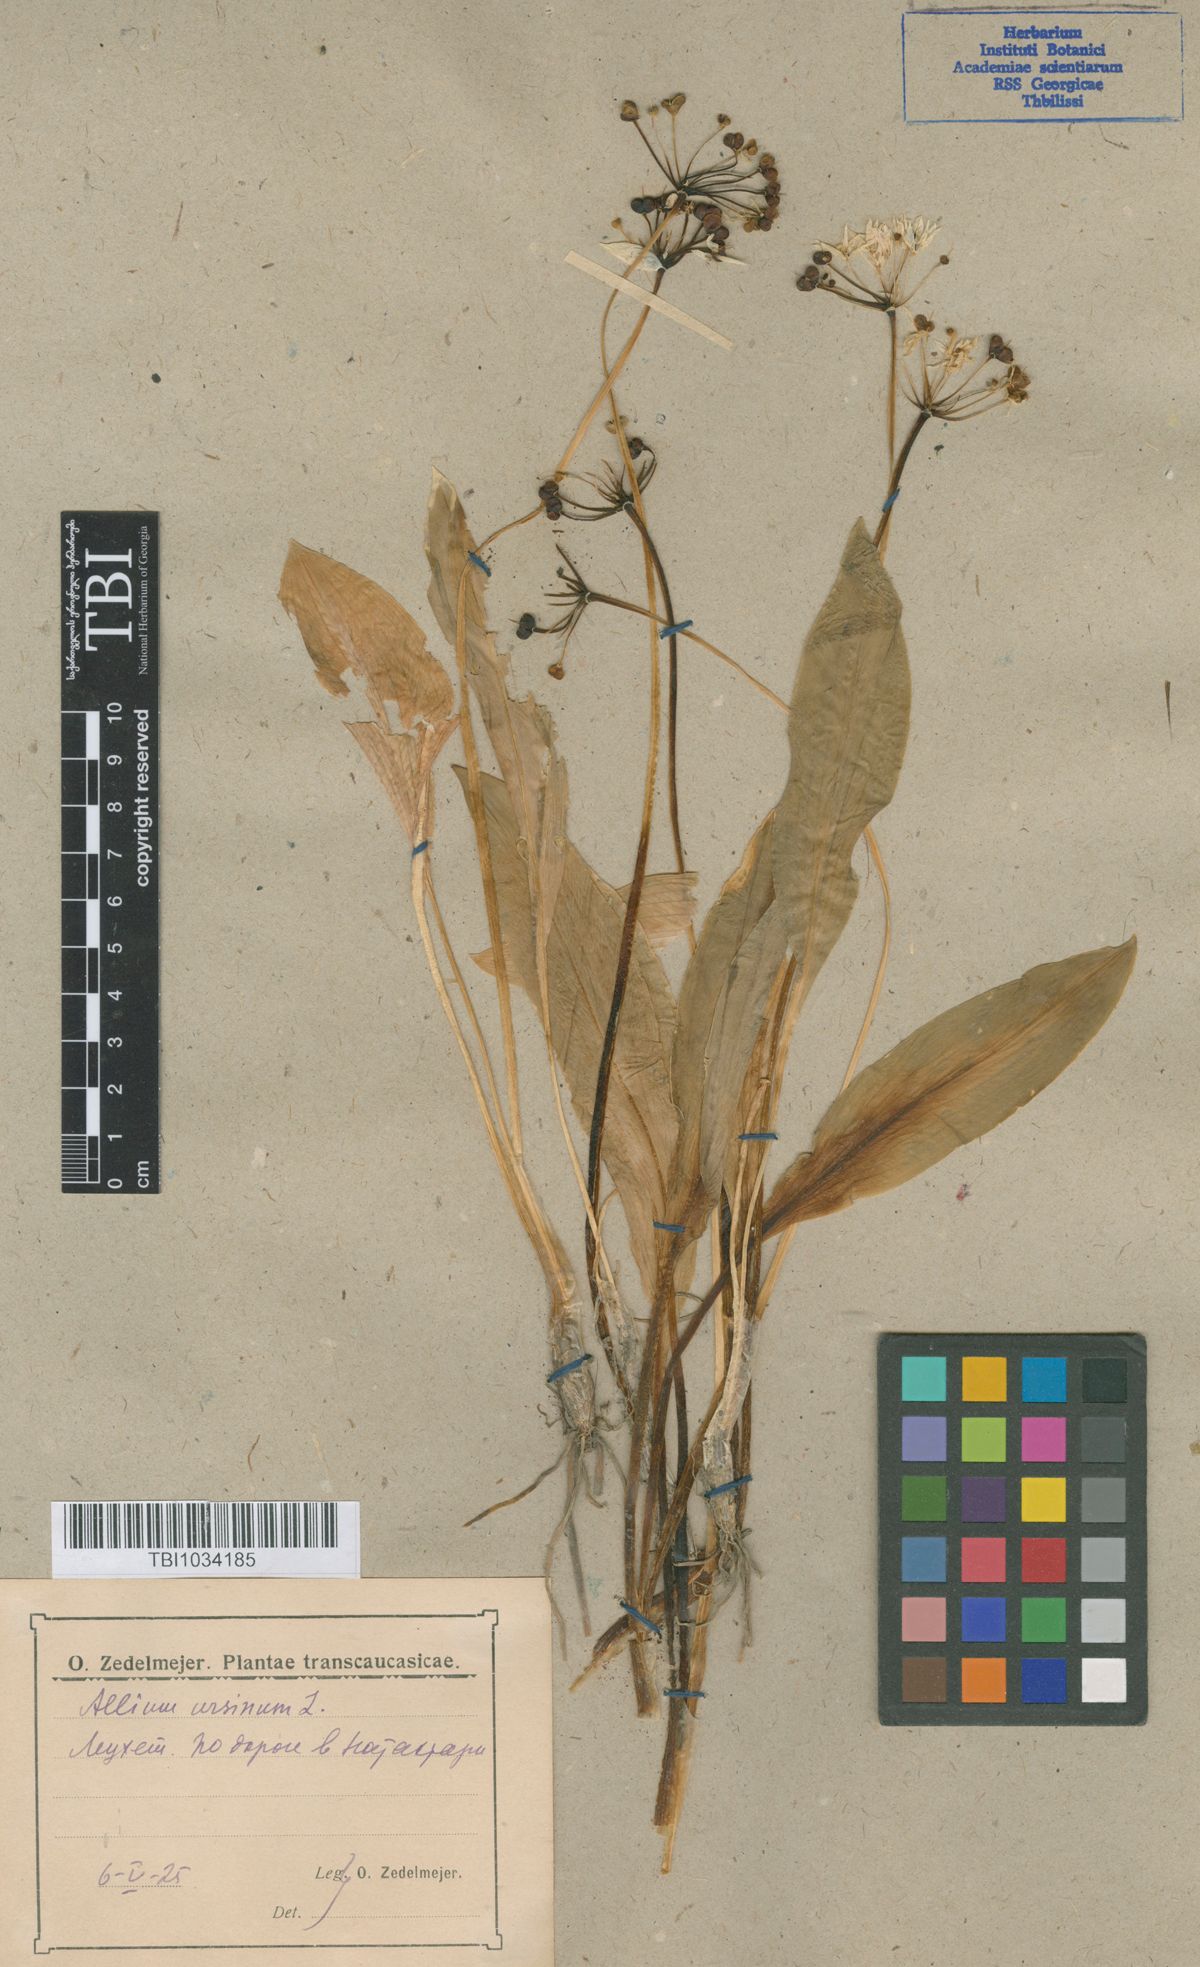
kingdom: Plantae
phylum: Tracheophyta
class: Liliopsida
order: Asparagales
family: Amaryllidaceae
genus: Allium
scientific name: Allium ursinum
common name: Ramsons
